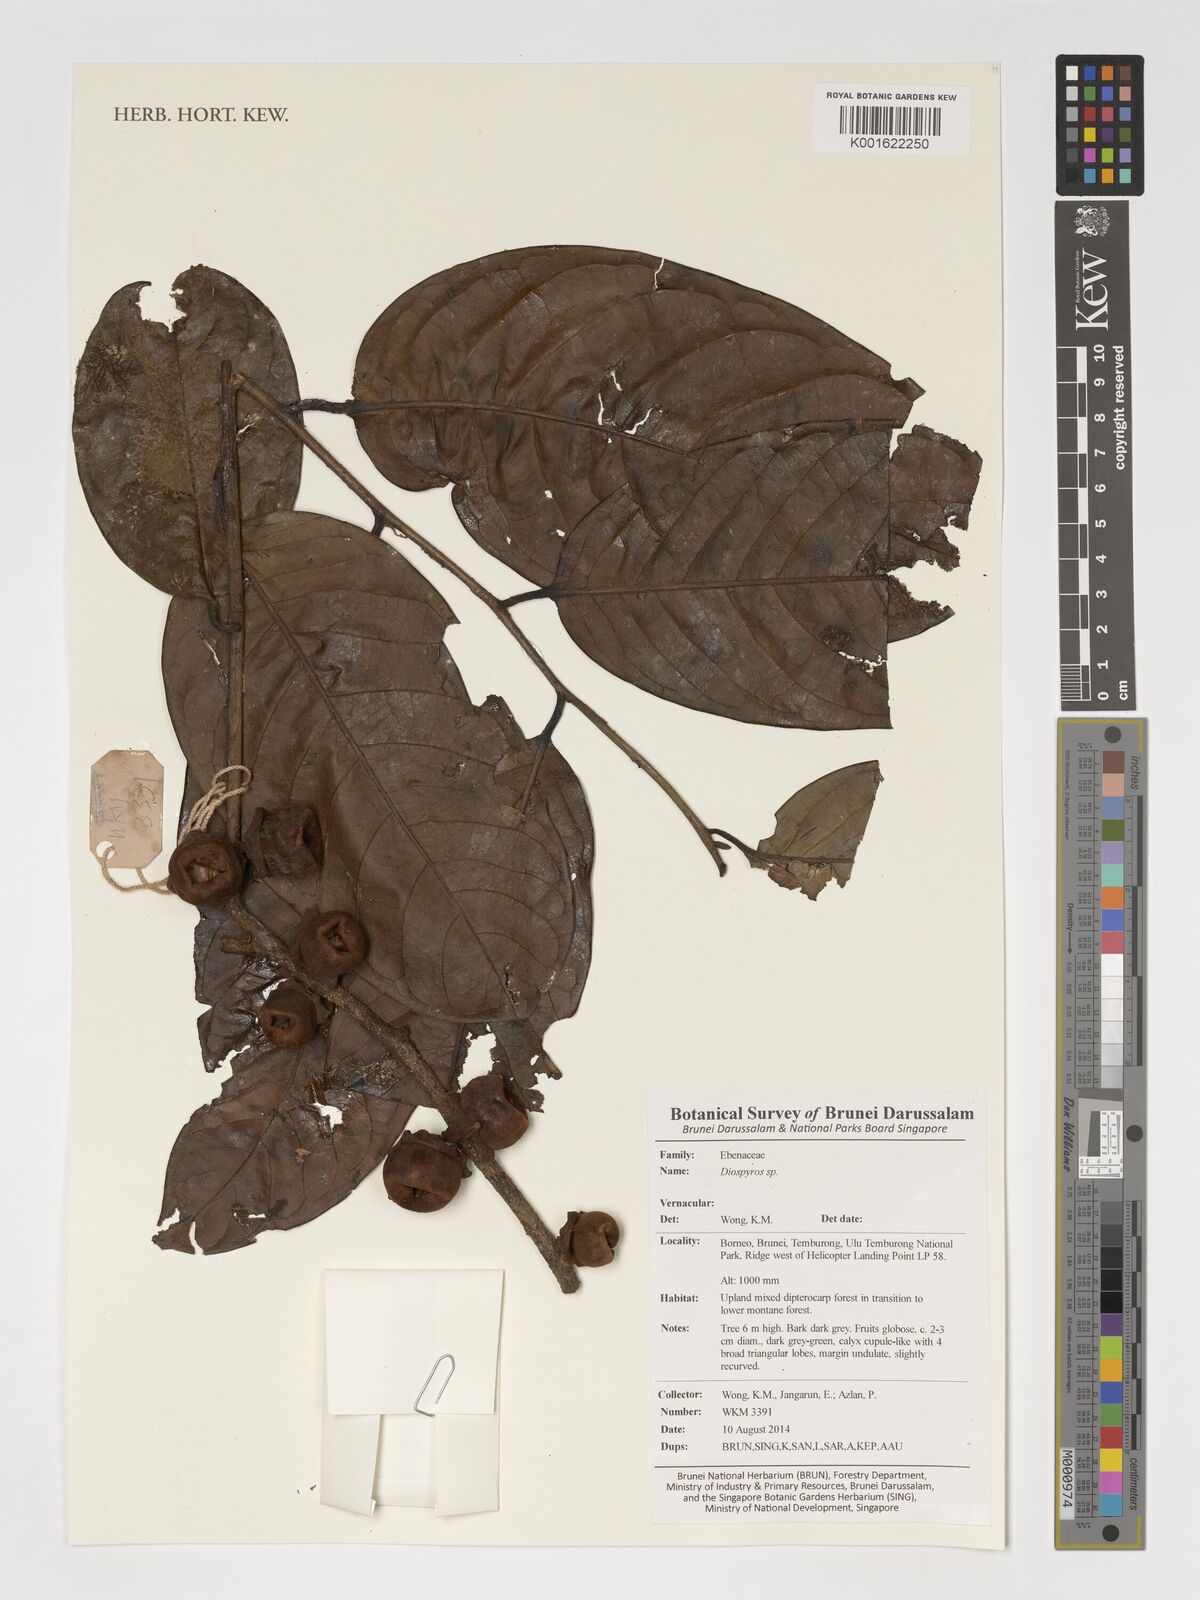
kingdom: Plantae
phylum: Tracheophyta
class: Magnoliopsida
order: Ericales
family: Ebenaceae
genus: Diospyros
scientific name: Diospyros
